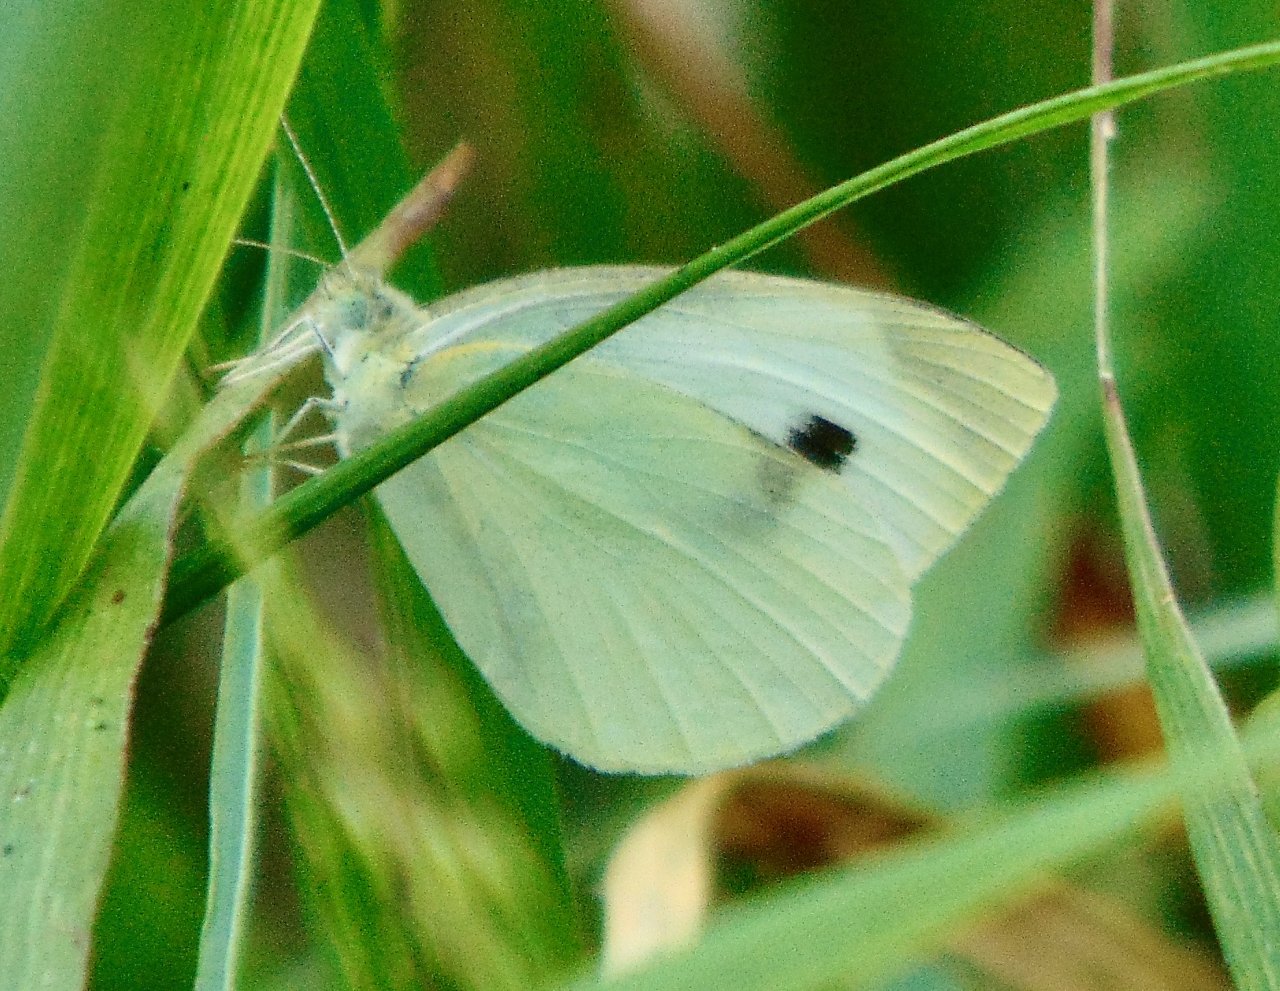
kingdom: Animalia
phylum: Arthropoda
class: Insecta
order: Lepidoptera
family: Pieridae
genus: Pieris
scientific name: Pieris rapae
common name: Cabbage White
